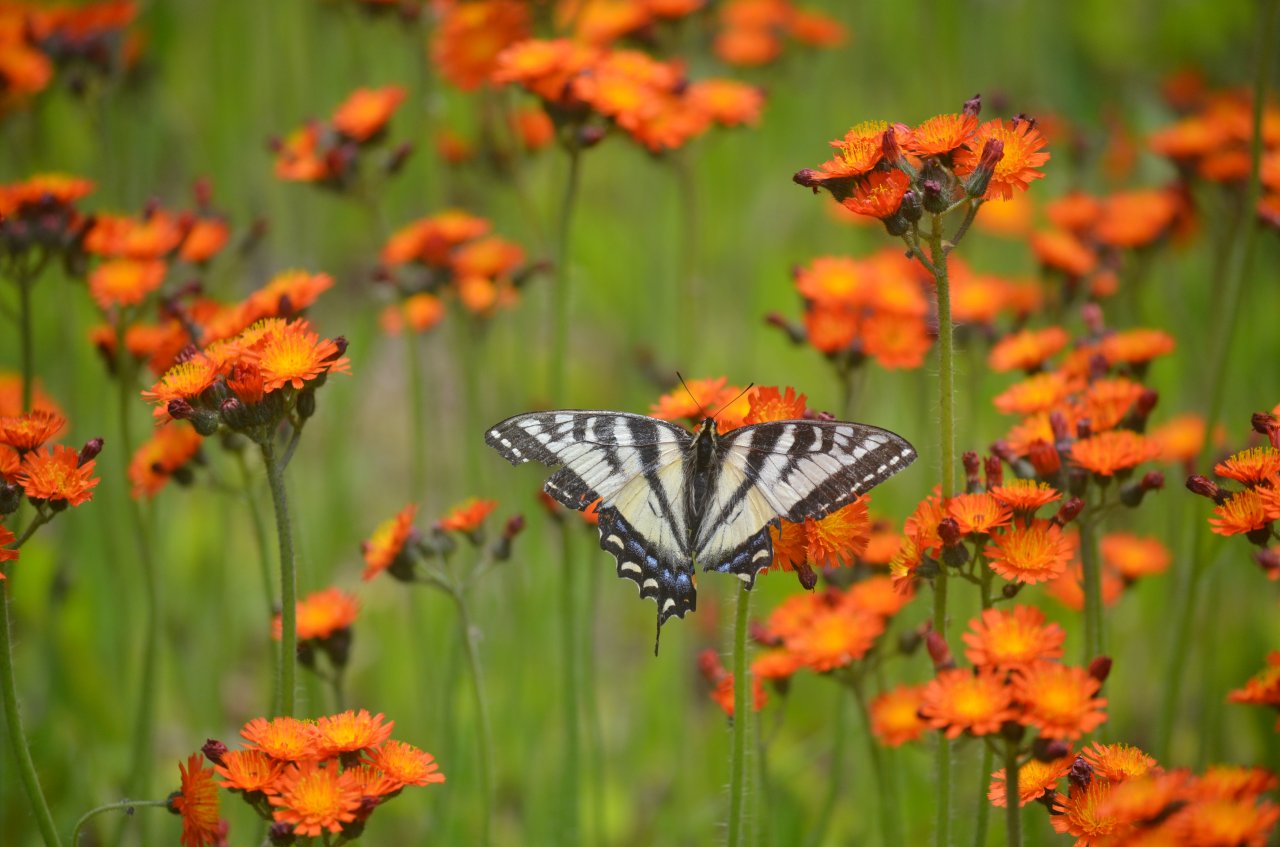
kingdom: Animalia
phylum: Arthropoda
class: Insecta
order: Lepidoptera
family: Papilionidae
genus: Pterourus
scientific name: Pterourus canadensis
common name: Canadian Tiger Swallowtail
